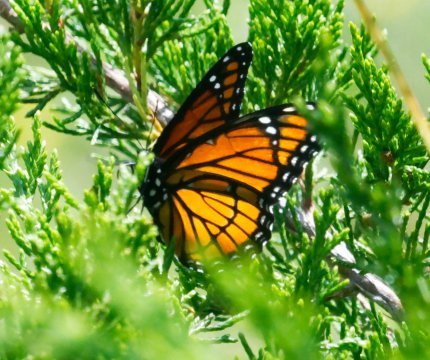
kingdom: Animalia
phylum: Arthropoda
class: Insecta
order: Lepidoptera
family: Nymphalidae
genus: Limenitis
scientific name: Limenitis archippus
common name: Viceroy
